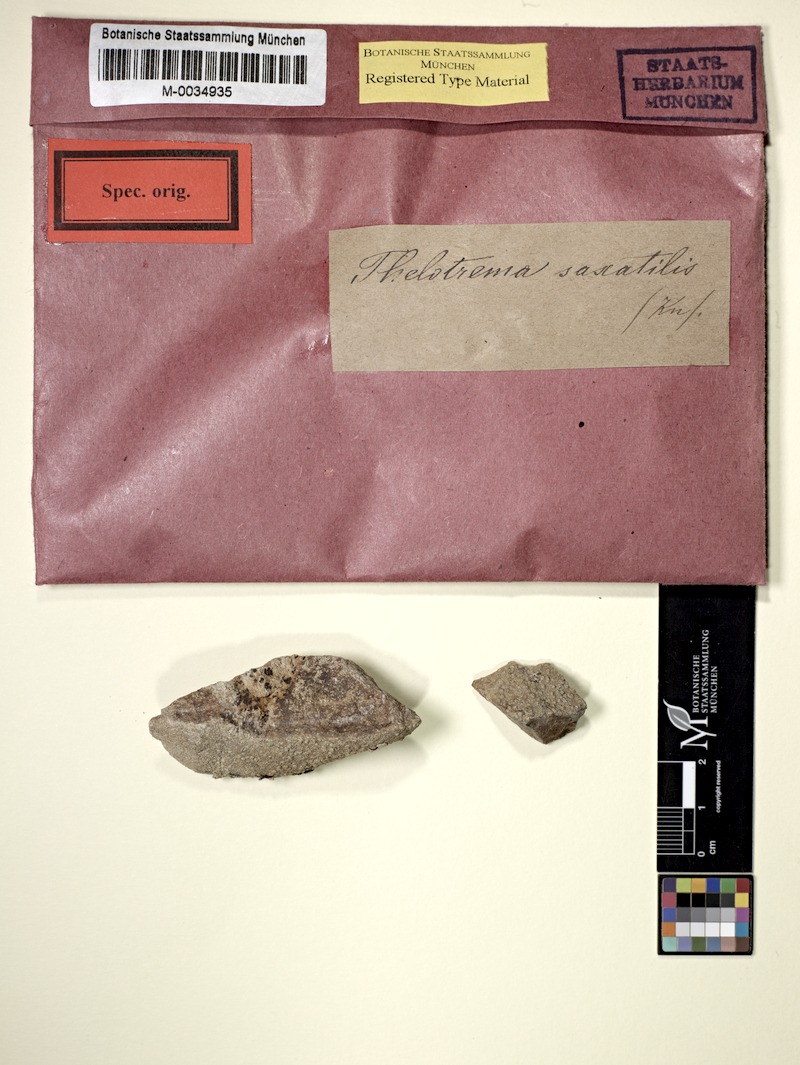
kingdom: Fungi
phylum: Ascomycota
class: Lecanoromycetes
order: Ostropales
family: Graphidaceae
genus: Thelotrema
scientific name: Thelotrema monosporum
